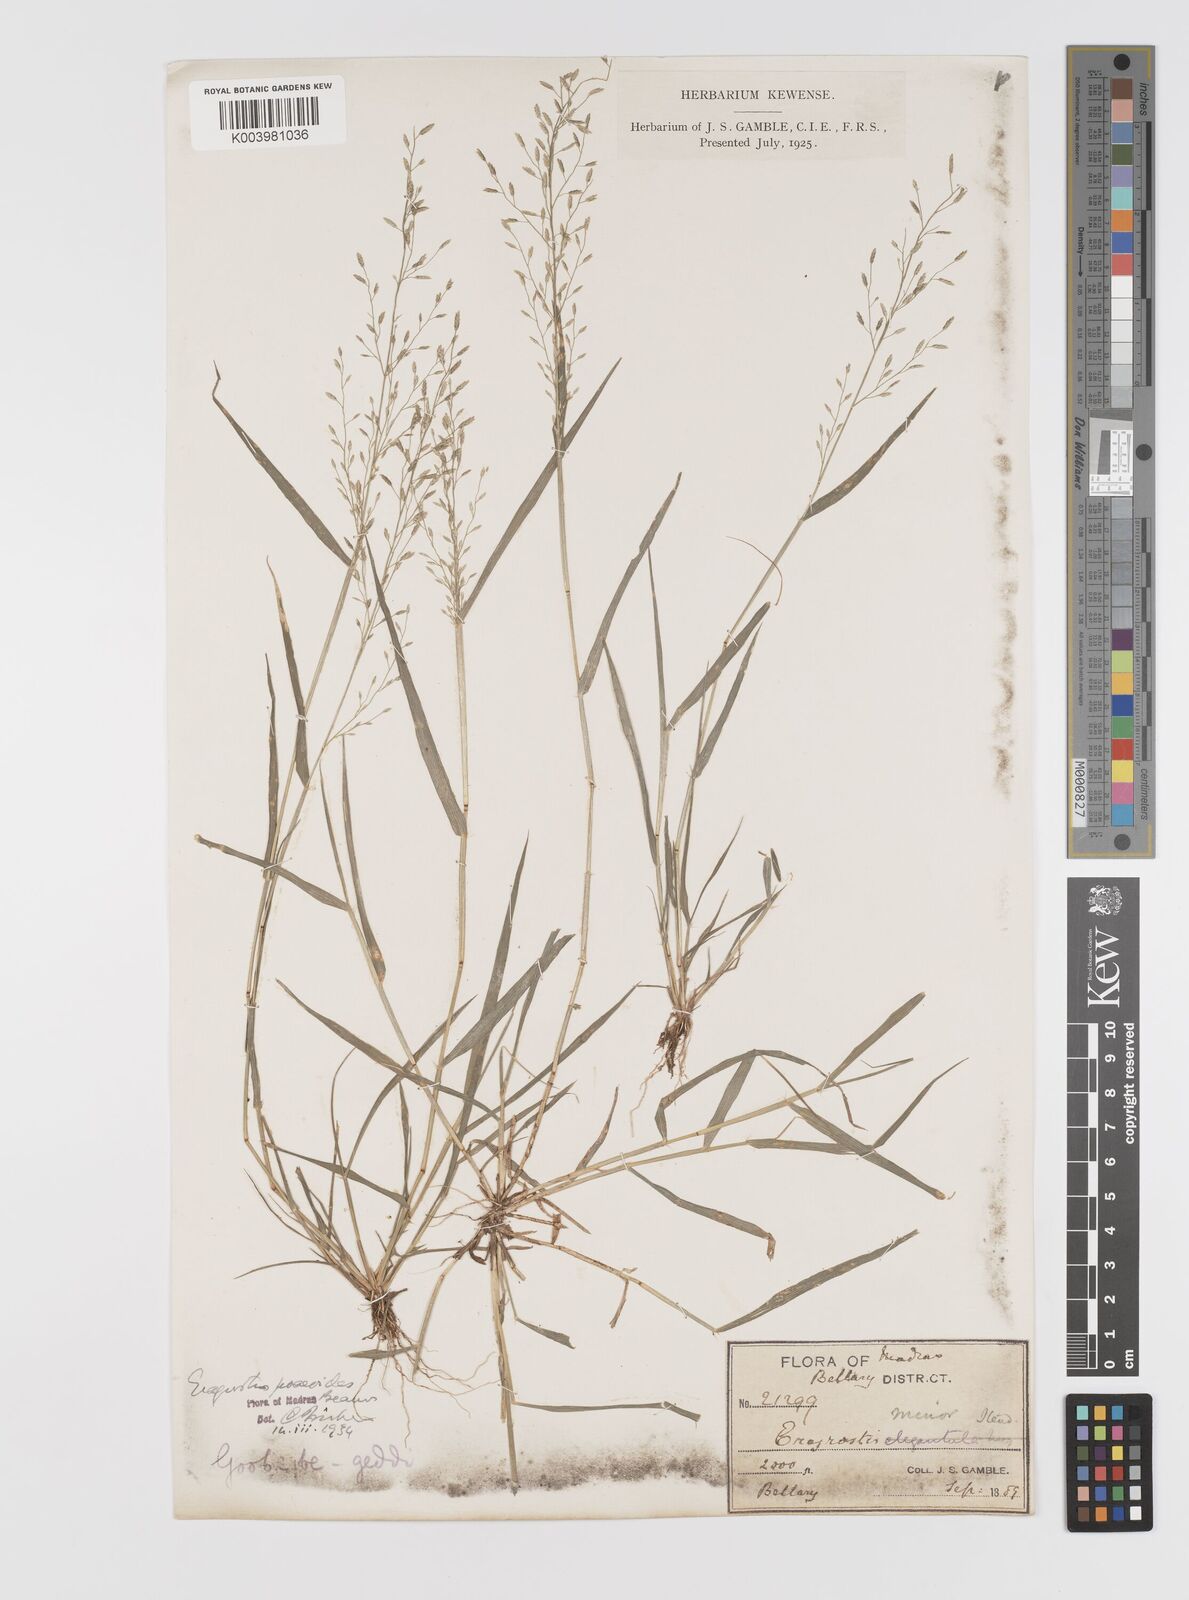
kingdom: Plantae
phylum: Tracheophyta
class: Liliopsida
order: Poales
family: Poaceae
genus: Eragrostis
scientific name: Eragrostis minor
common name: Small love-grass
